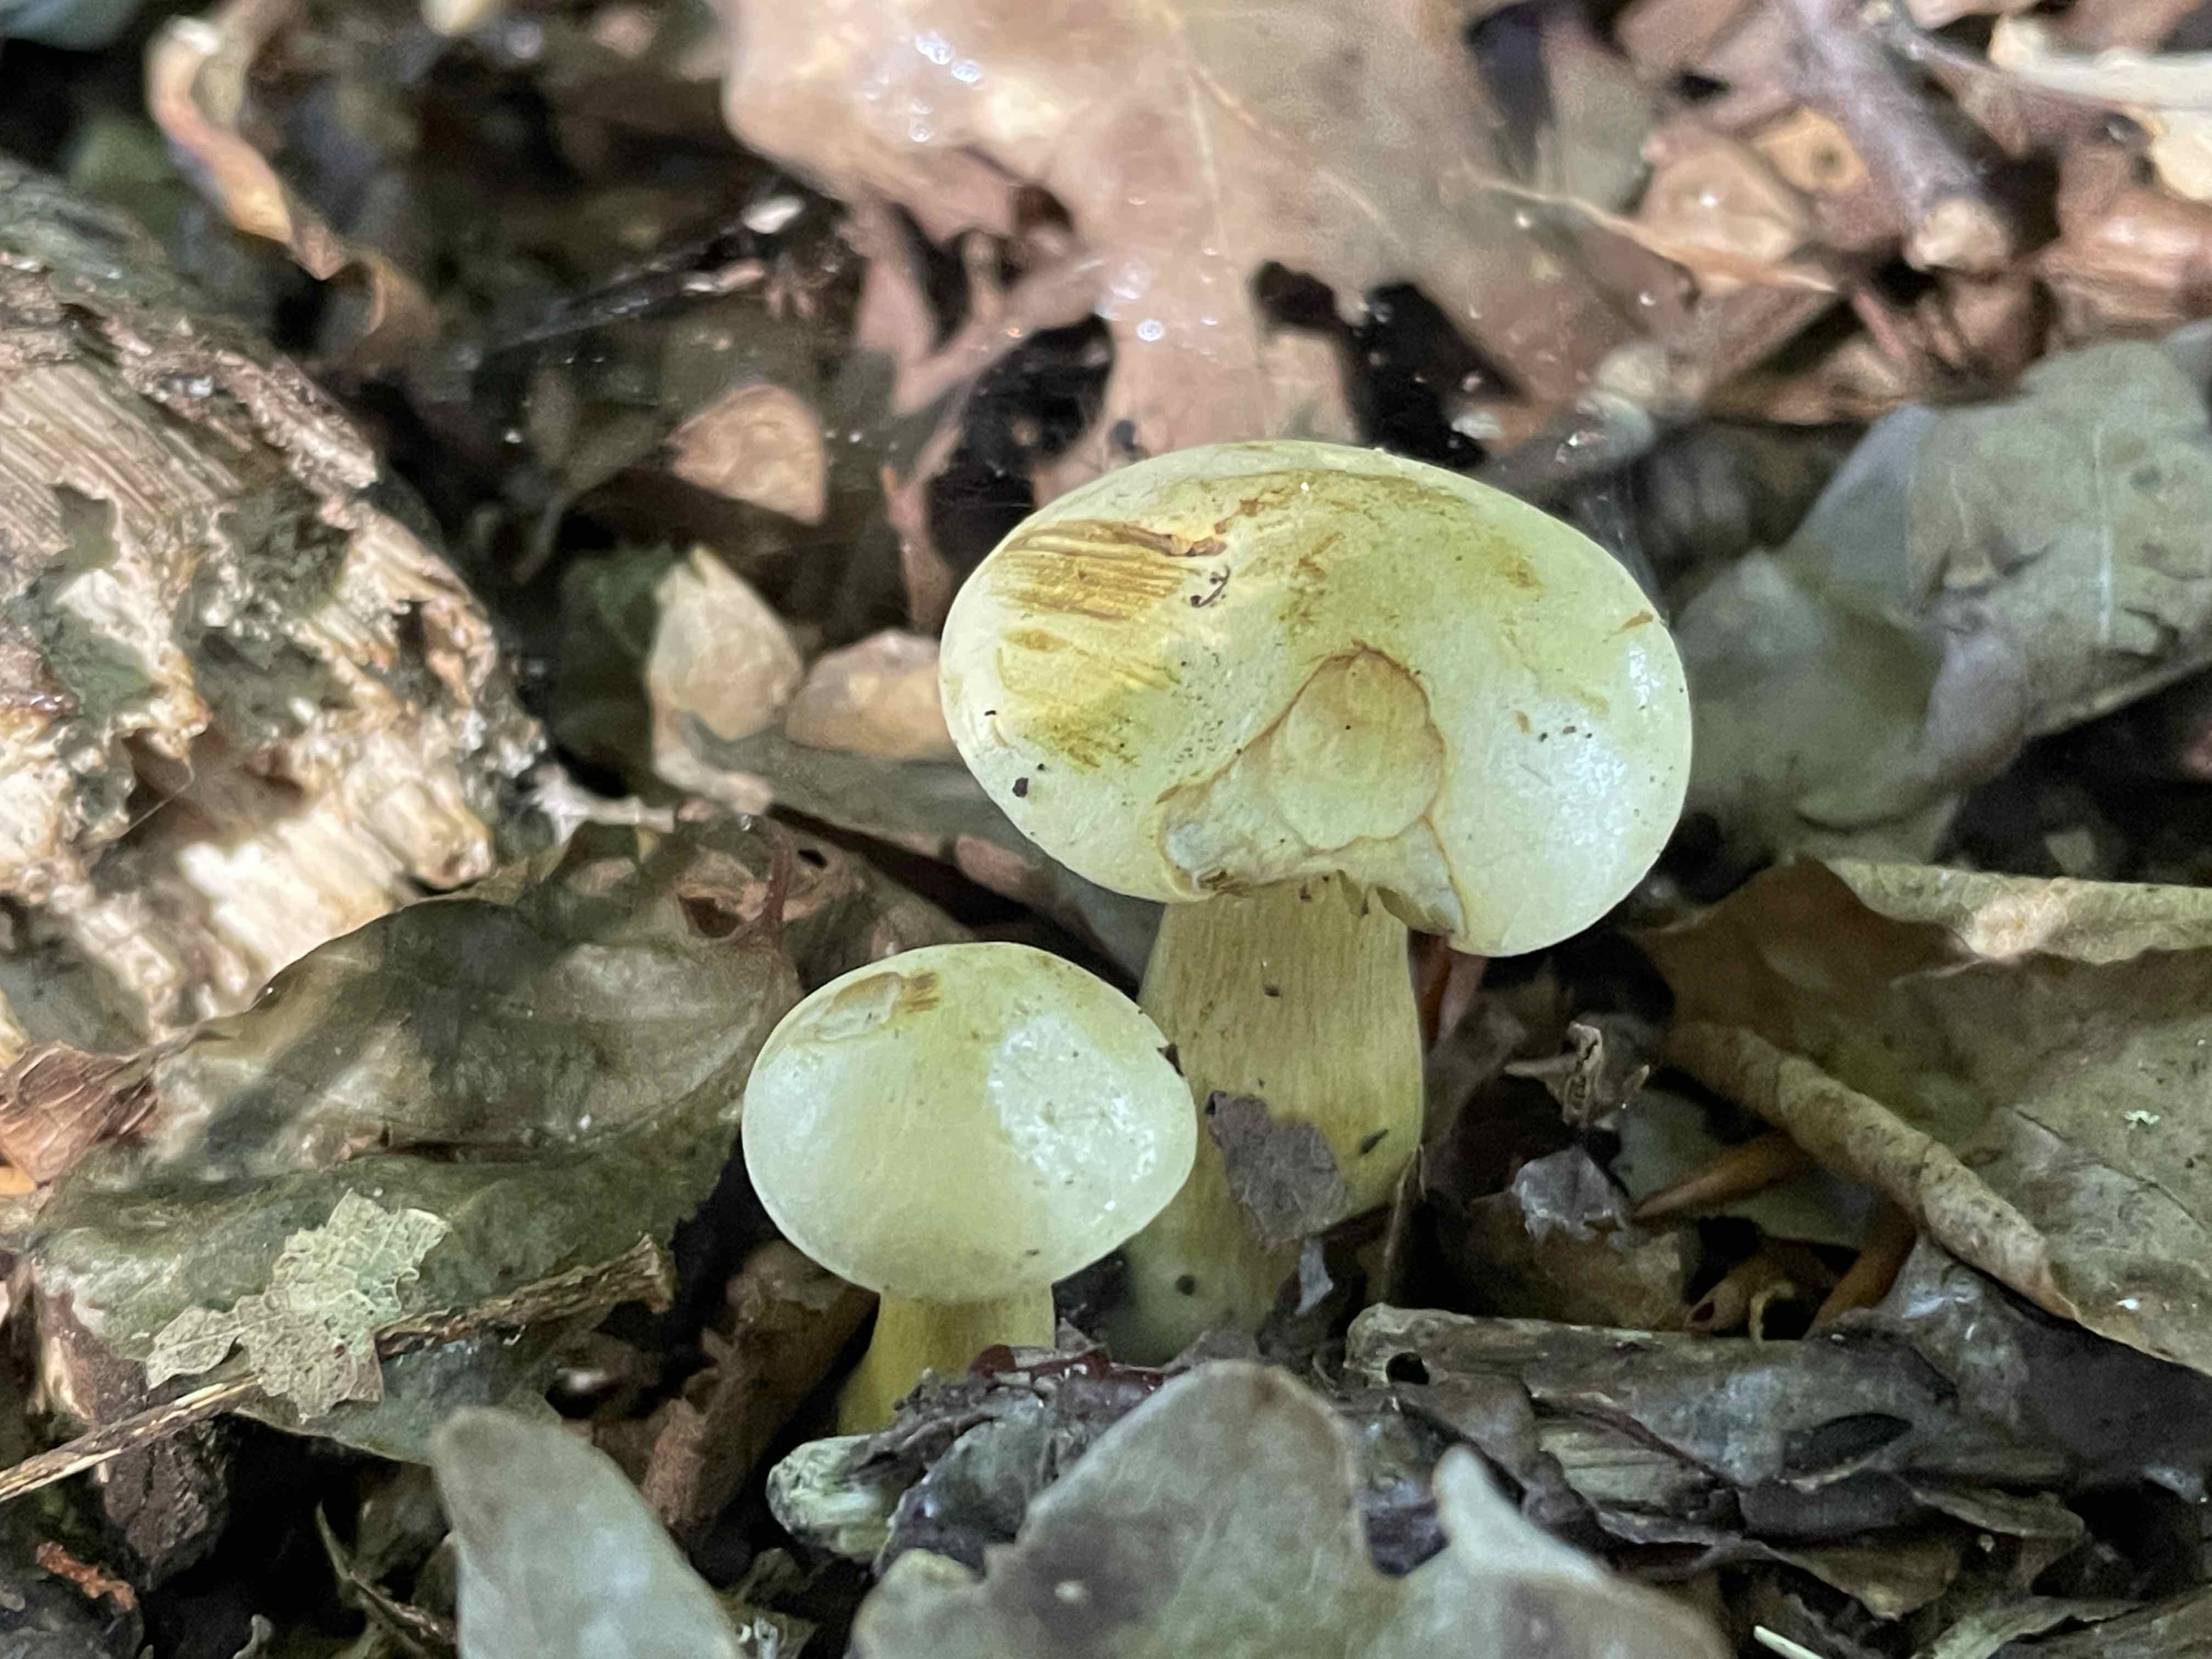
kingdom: Fungi
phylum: Basidiomycota
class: Agaricomycetes
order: Agaricales
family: Tricholomataceae
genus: Tricholoma
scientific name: Tricholoma sulphureum
